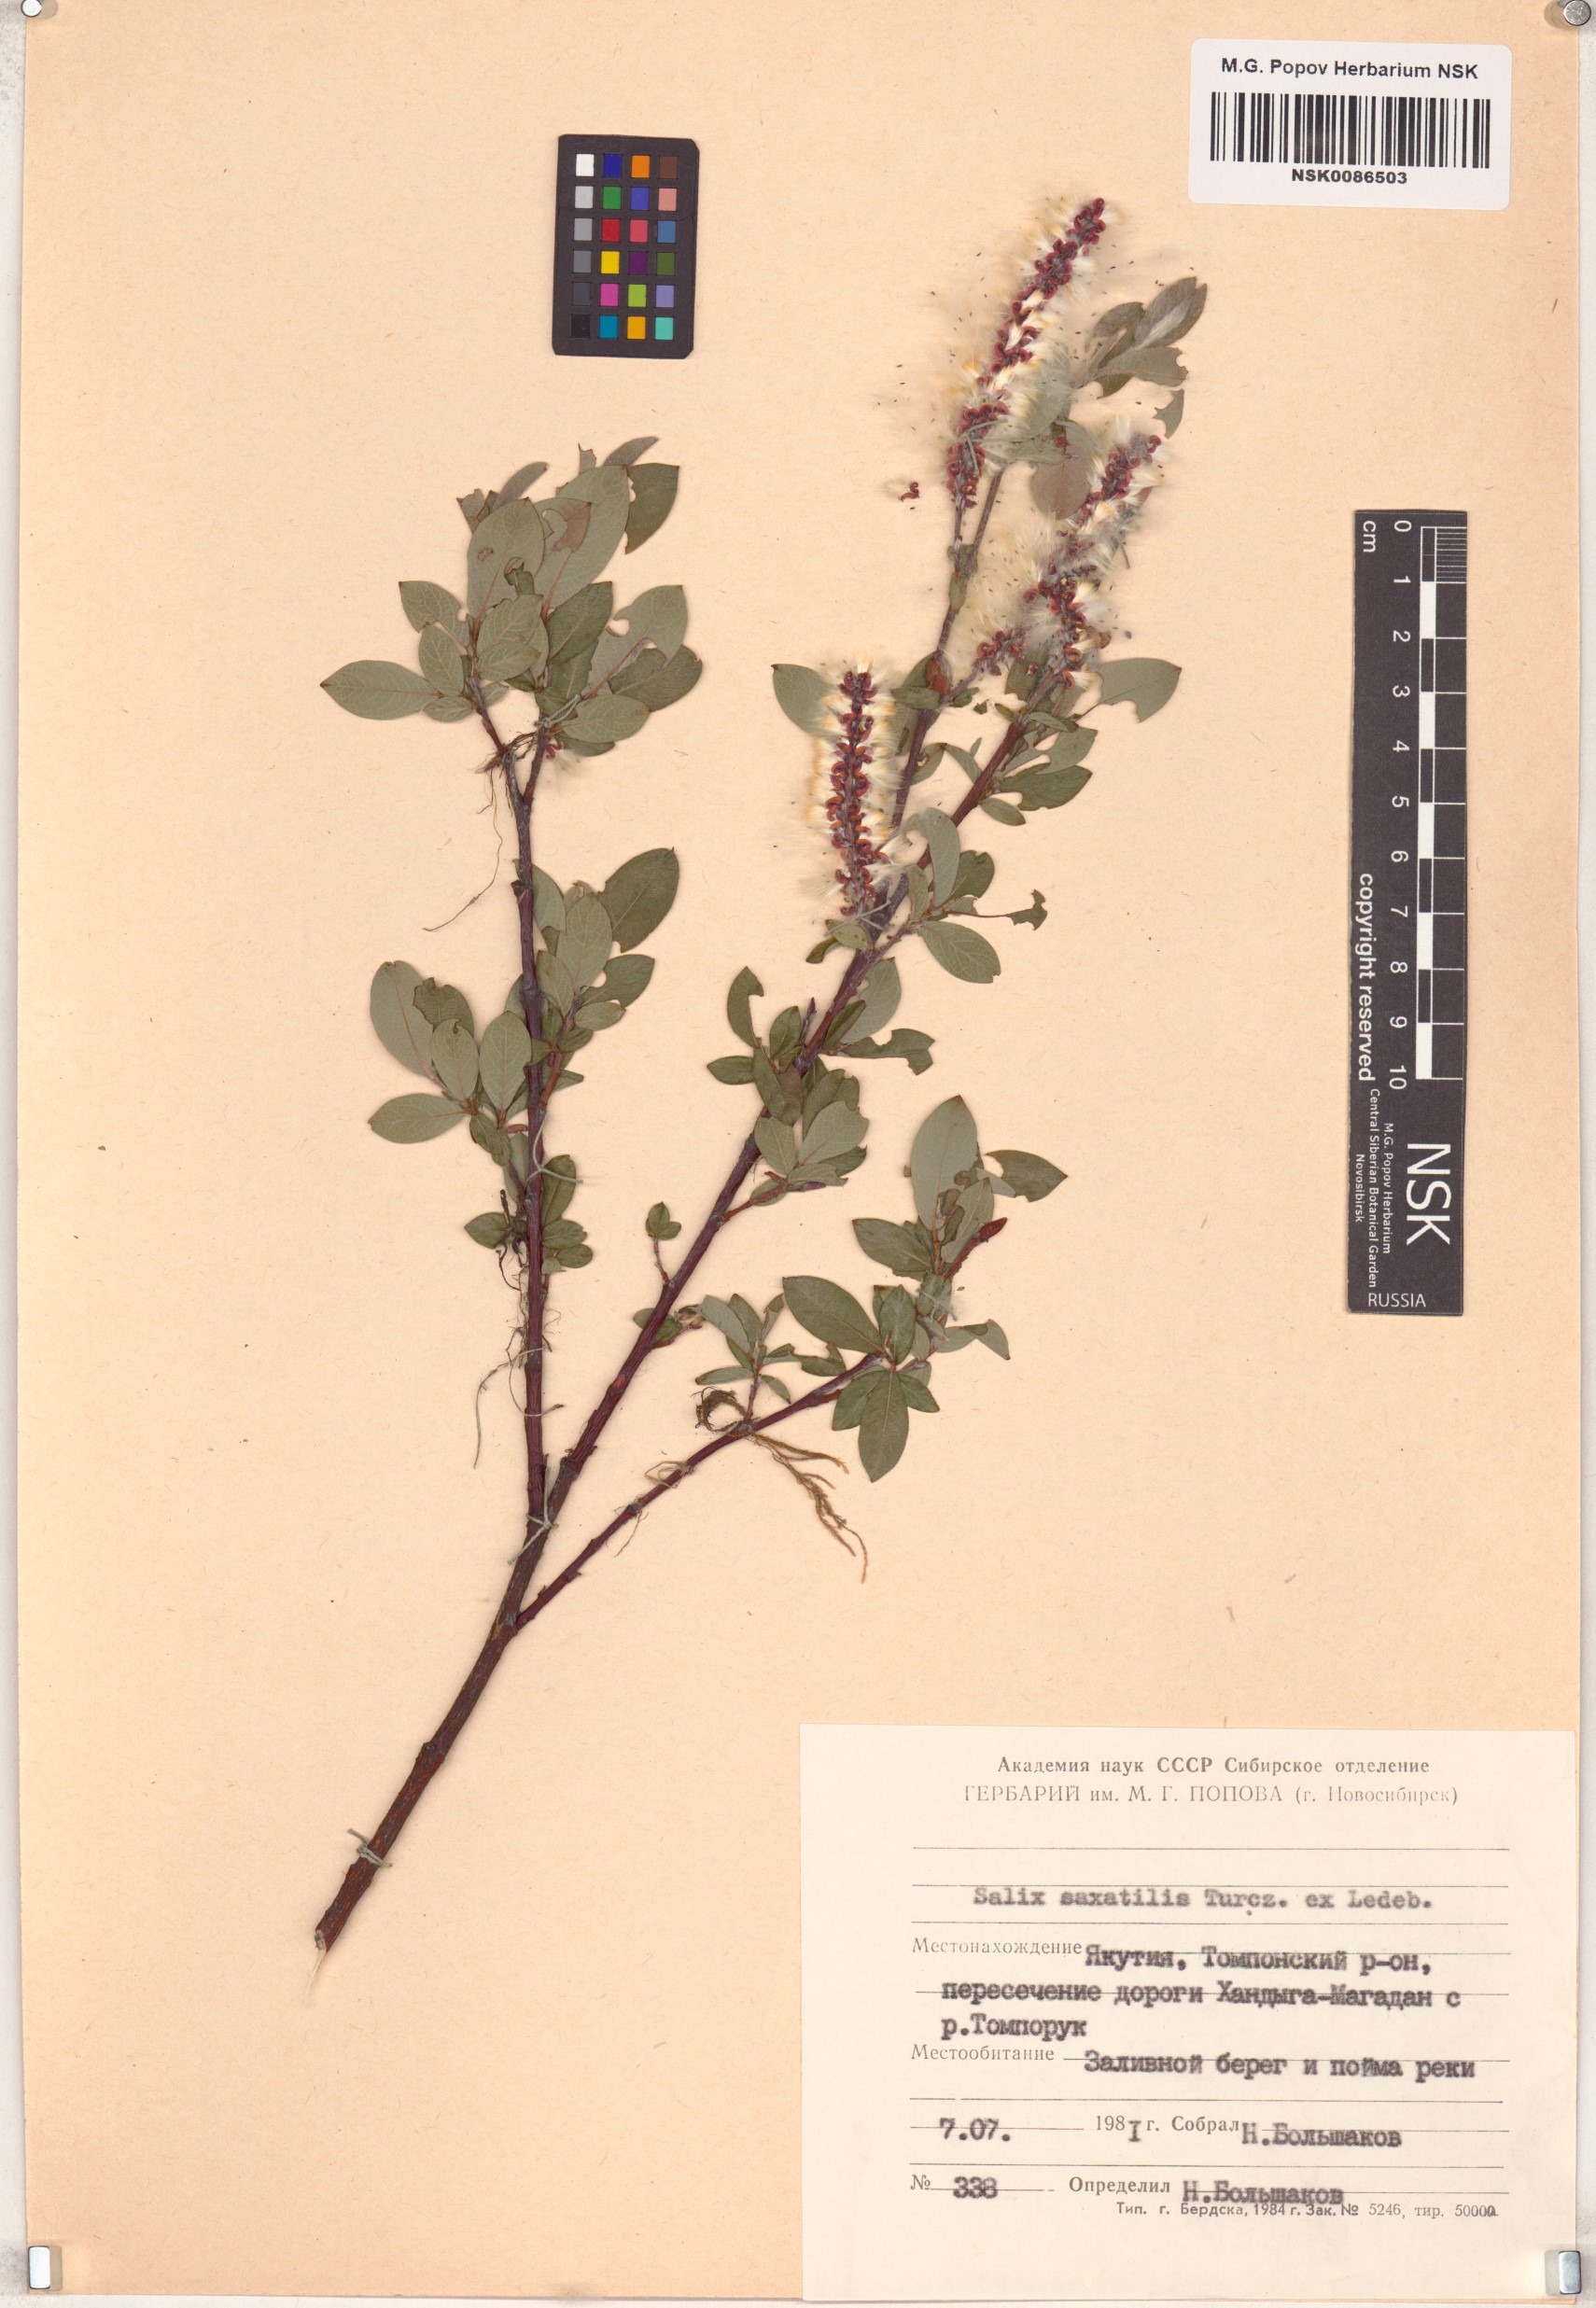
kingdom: Plantae
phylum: Tracheophyta
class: Magnoliopsida
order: Malpighiales
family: Salicaceae
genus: Salix
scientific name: Salix saxatilis
